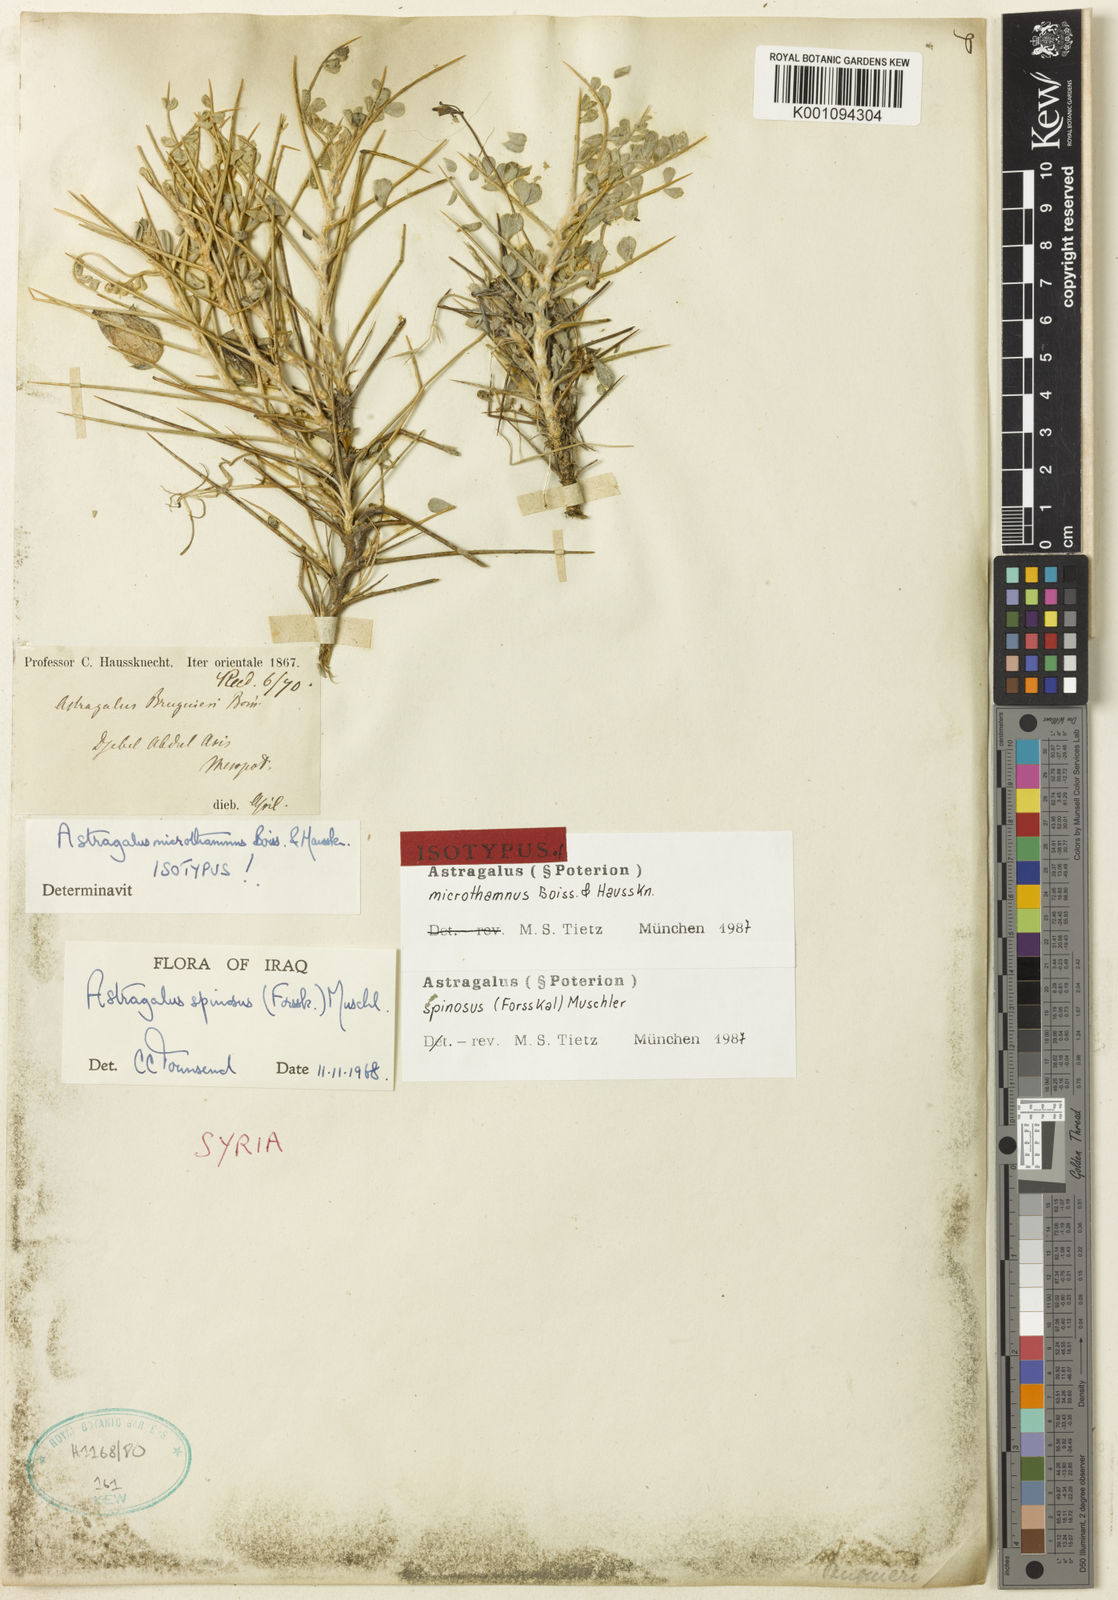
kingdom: Plantae
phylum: Tracheophyta
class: Magnoliopsida
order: Fabales
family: Fabaceae
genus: Astragalus
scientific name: Astragalus
